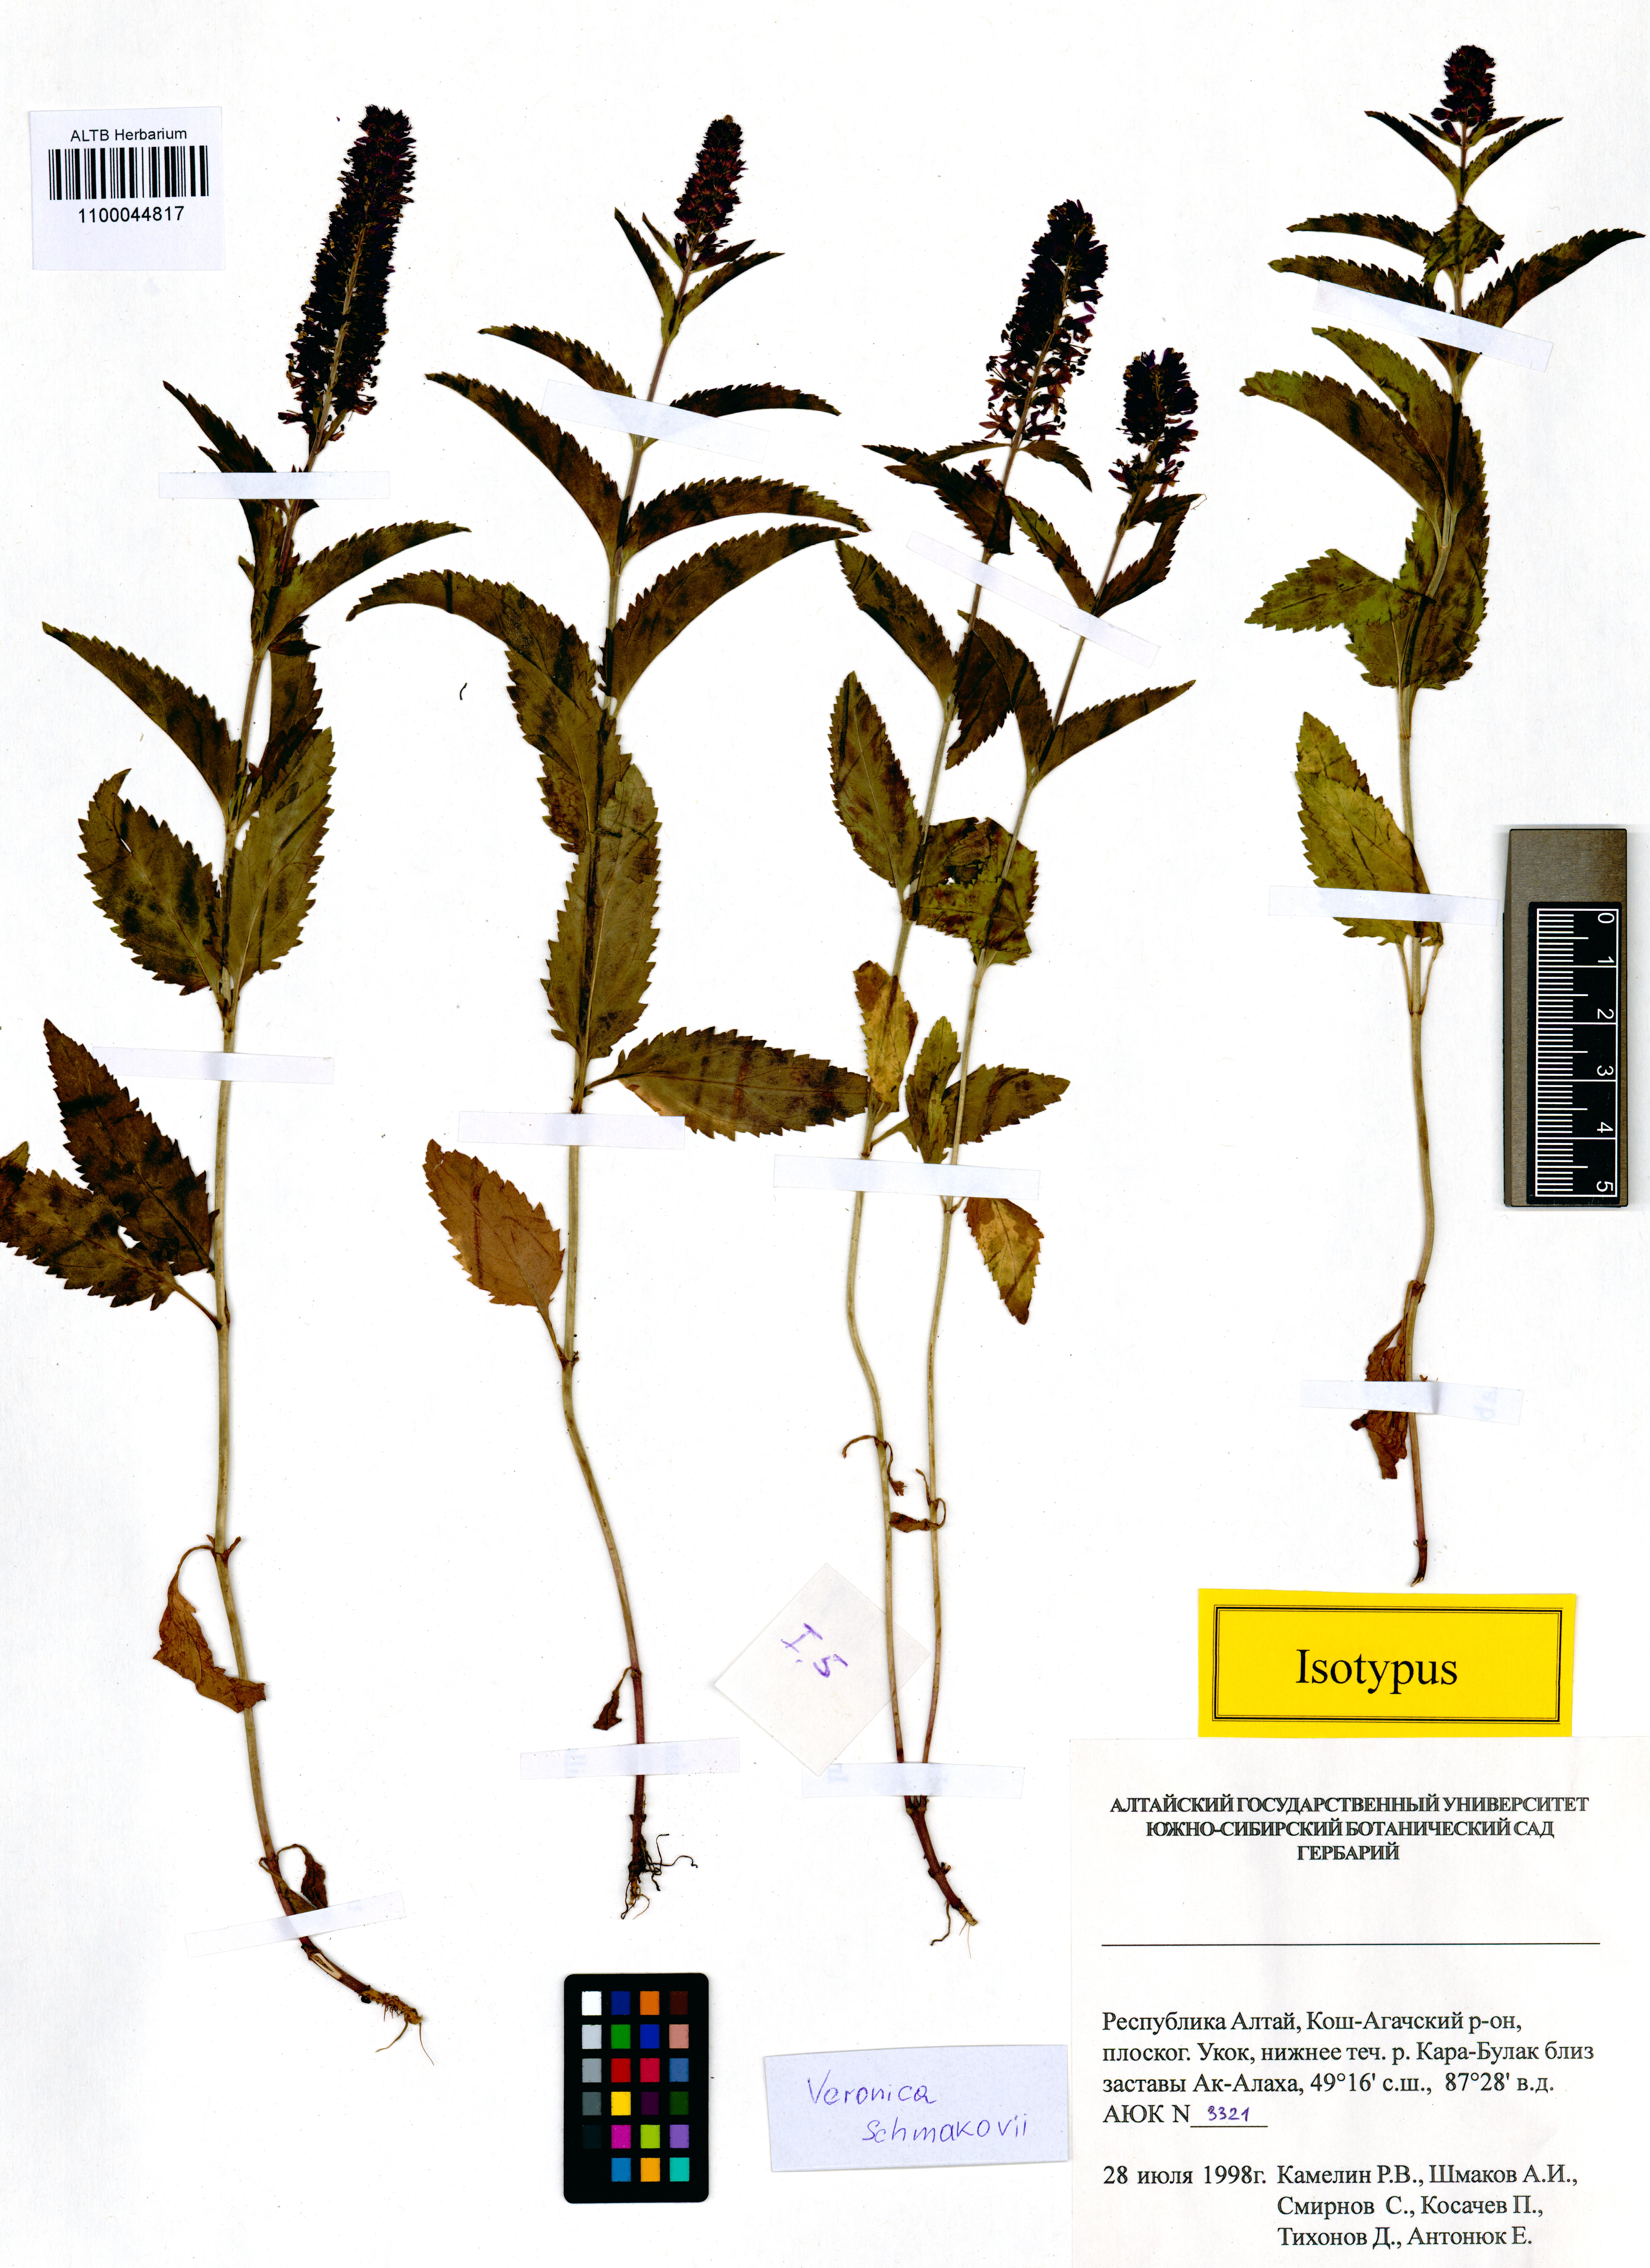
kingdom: Plantae
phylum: Tracheophyta
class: Magnoliopsida
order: Lamiales
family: Plantaginaceae
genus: Veronica
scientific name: Veronica schmakovii
